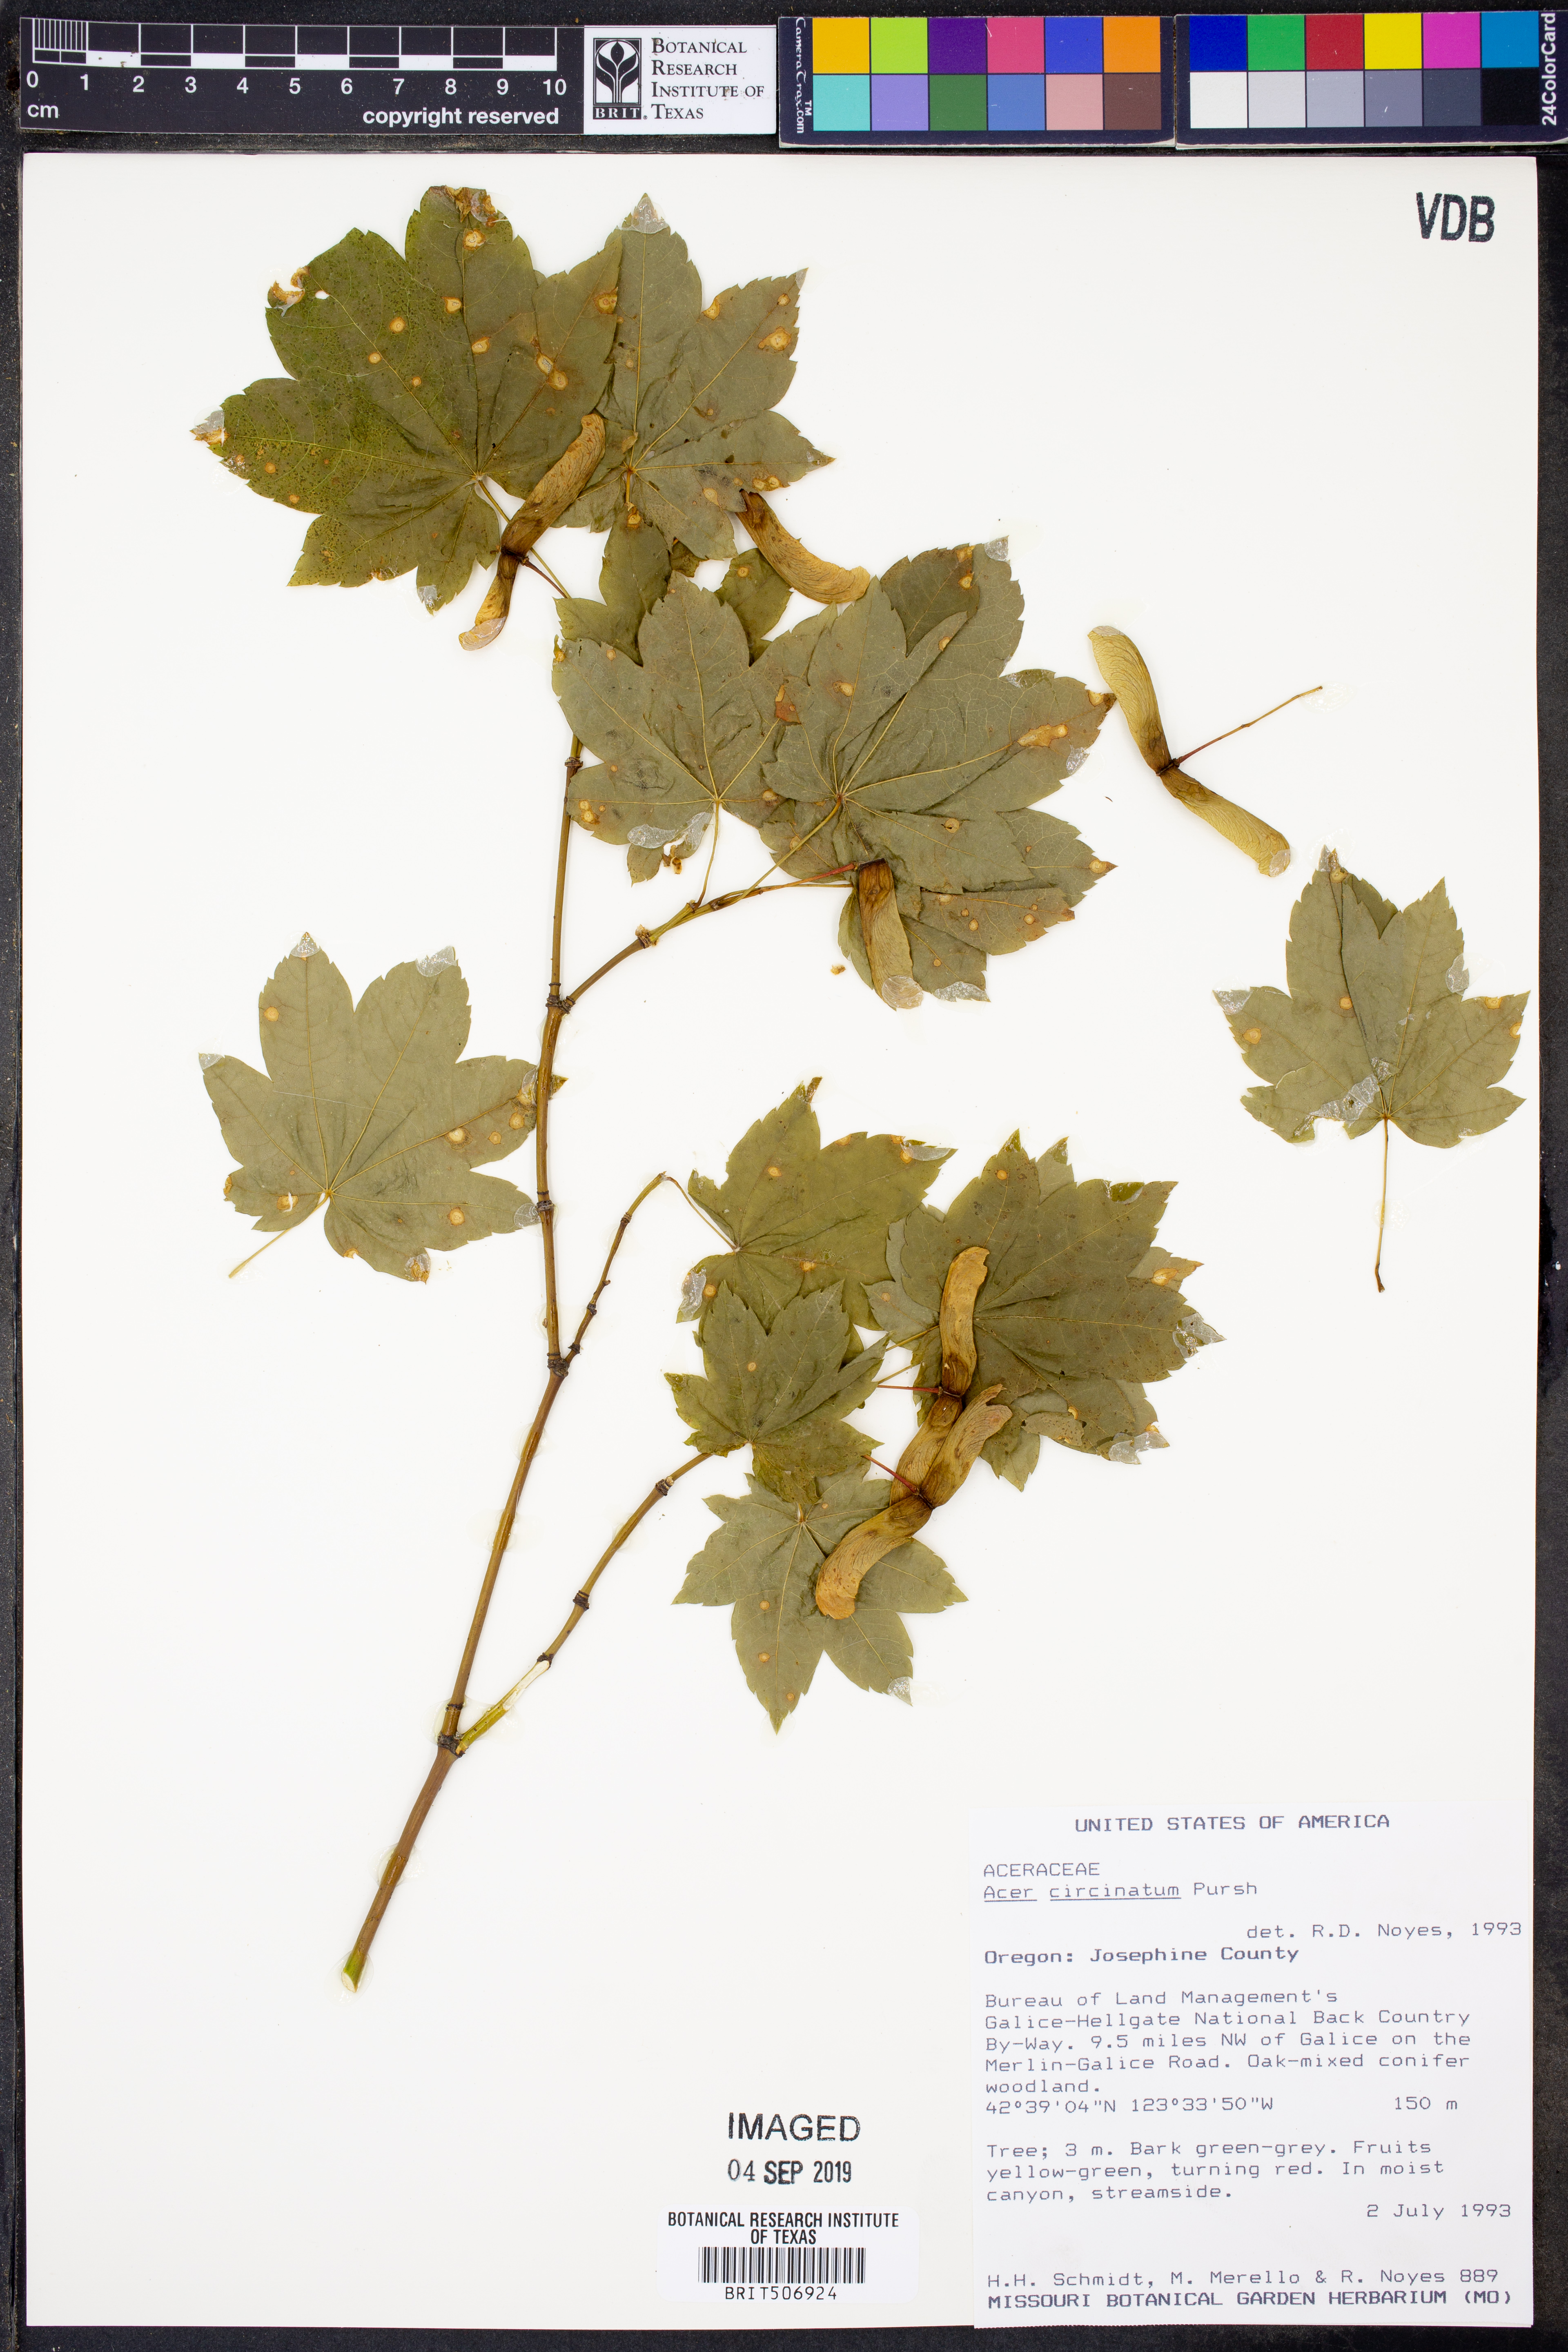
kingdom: Plantae
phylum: Tracheophyta
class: Magnoliopsida
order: Sapindales
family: Sapindaceae
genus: Acer
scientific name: Acer circinatum
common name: Vine maple
